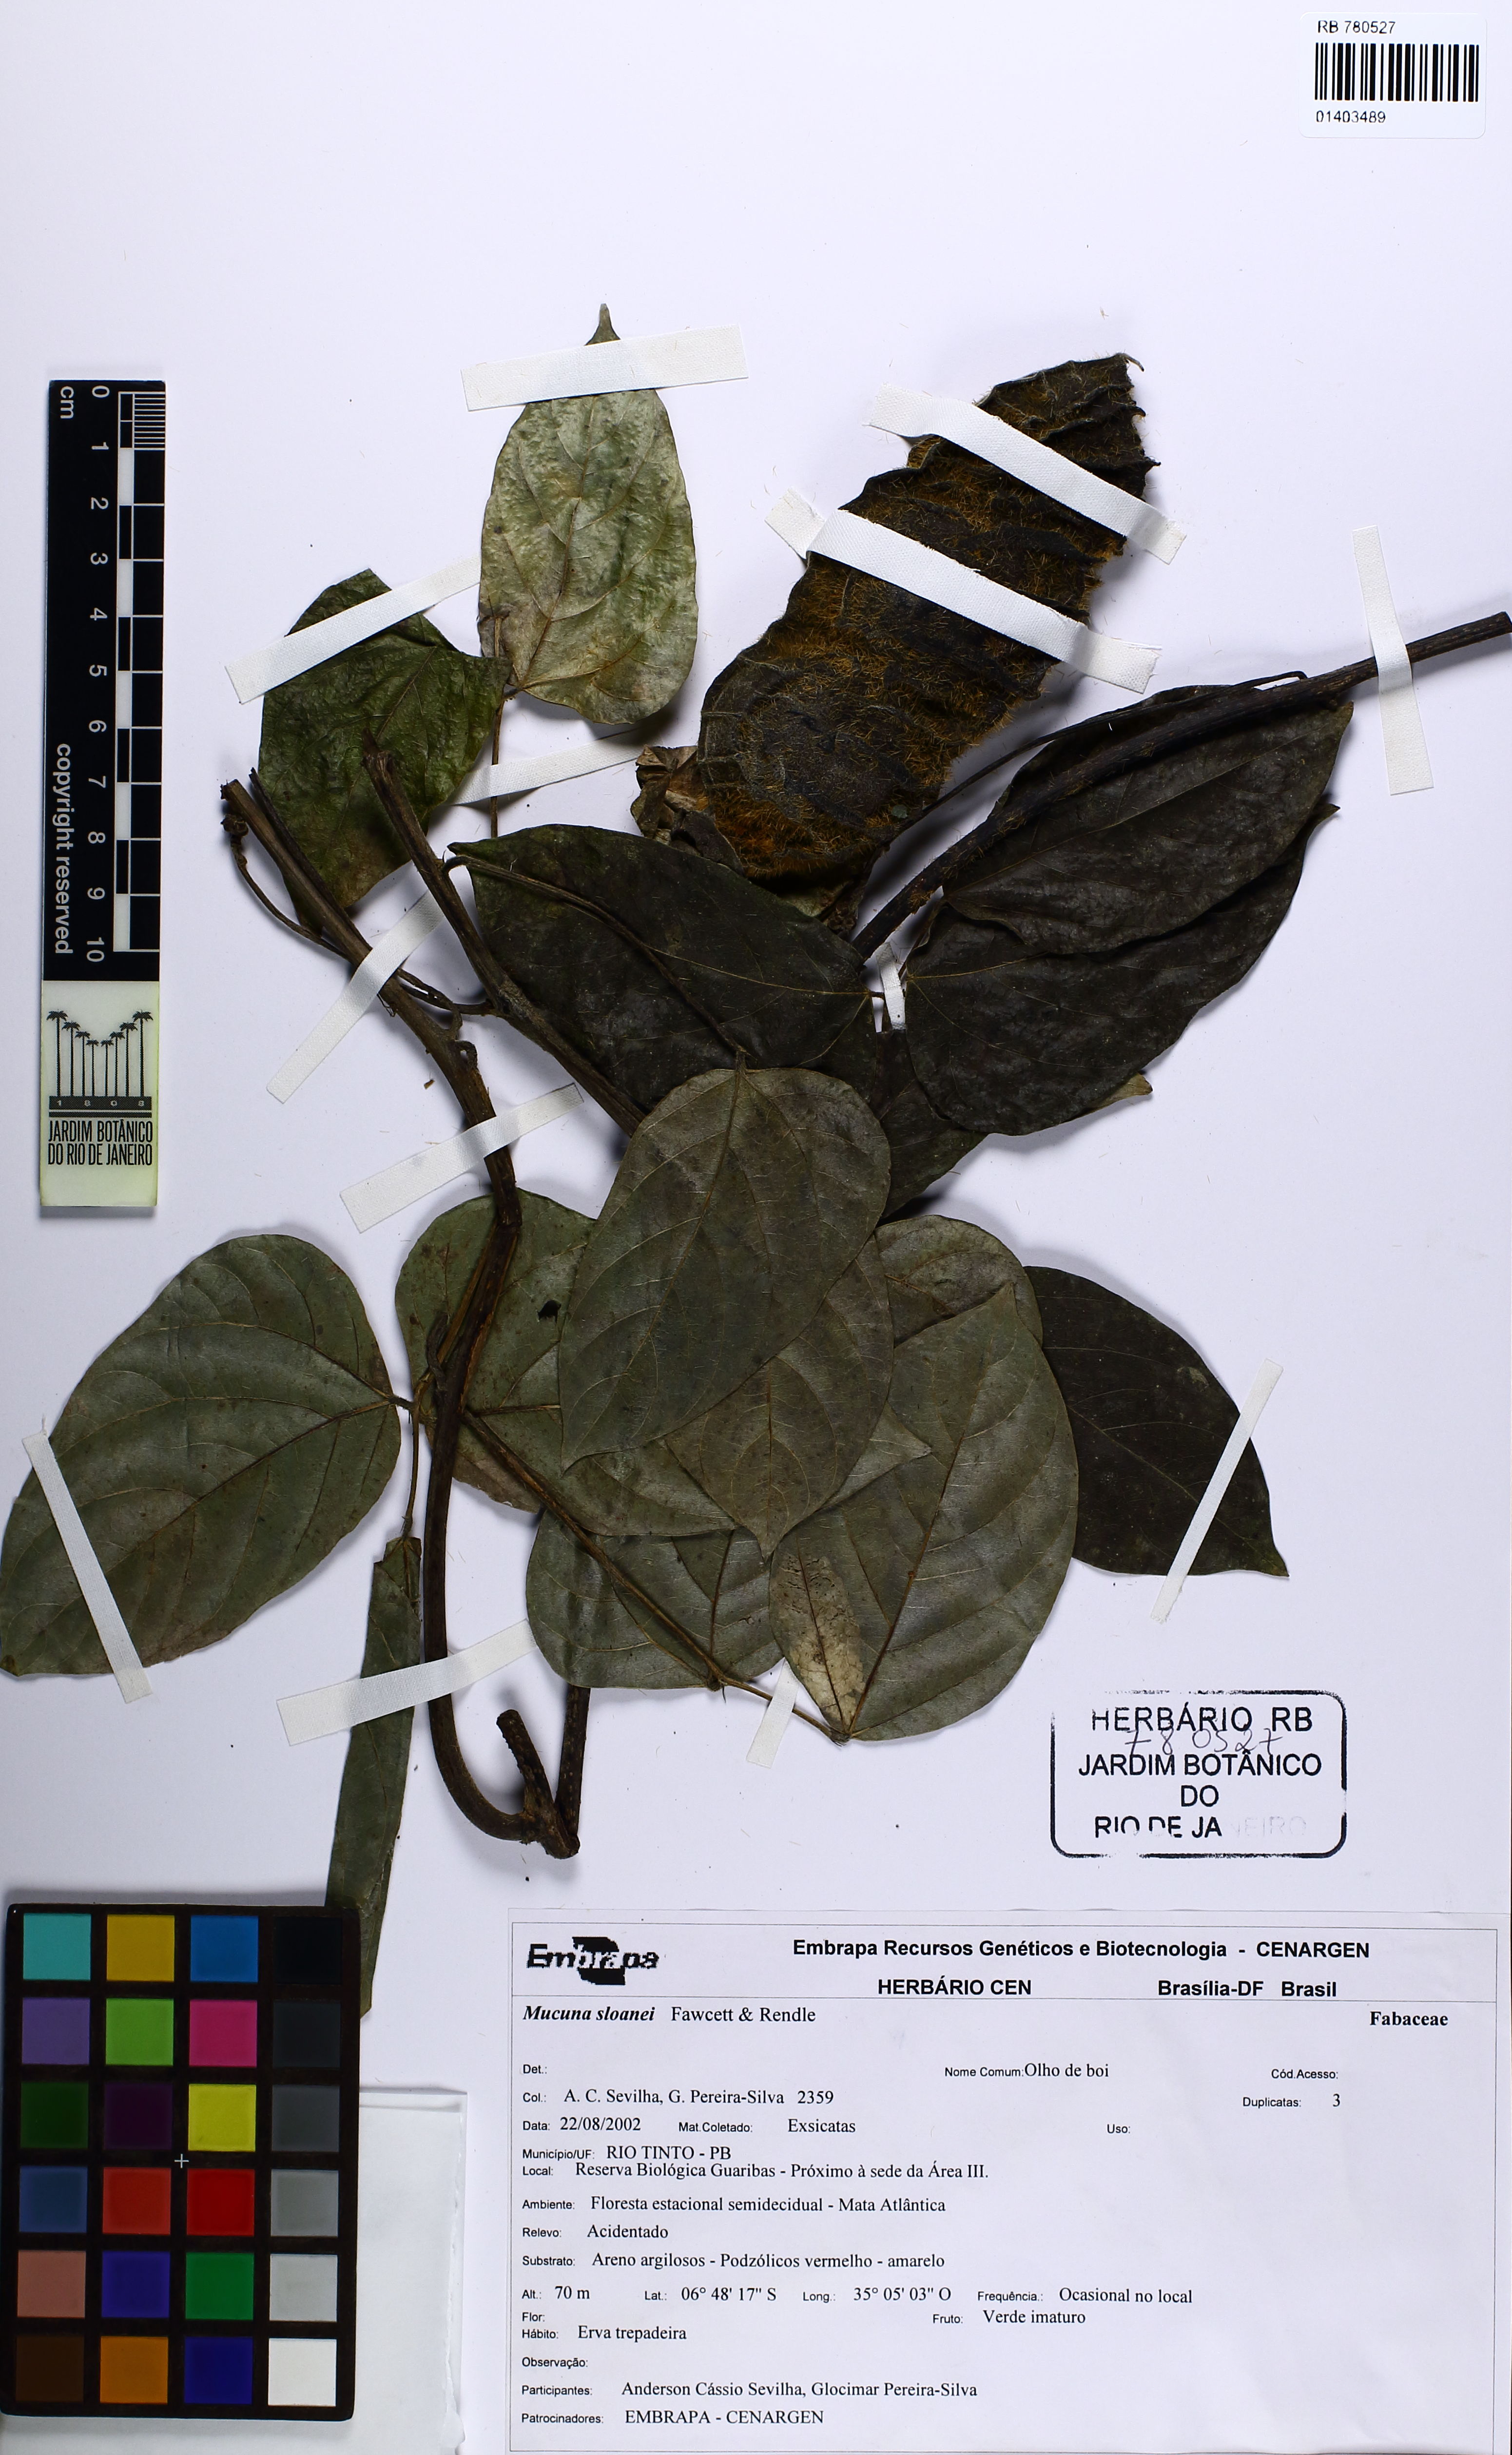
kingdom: Plantae
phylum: Tracheophyta
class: Magnoliopsida
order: Fabales
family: Fabaceae
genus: Mucuna
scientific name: Mucuna sloanei
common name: Horse-eye bean
